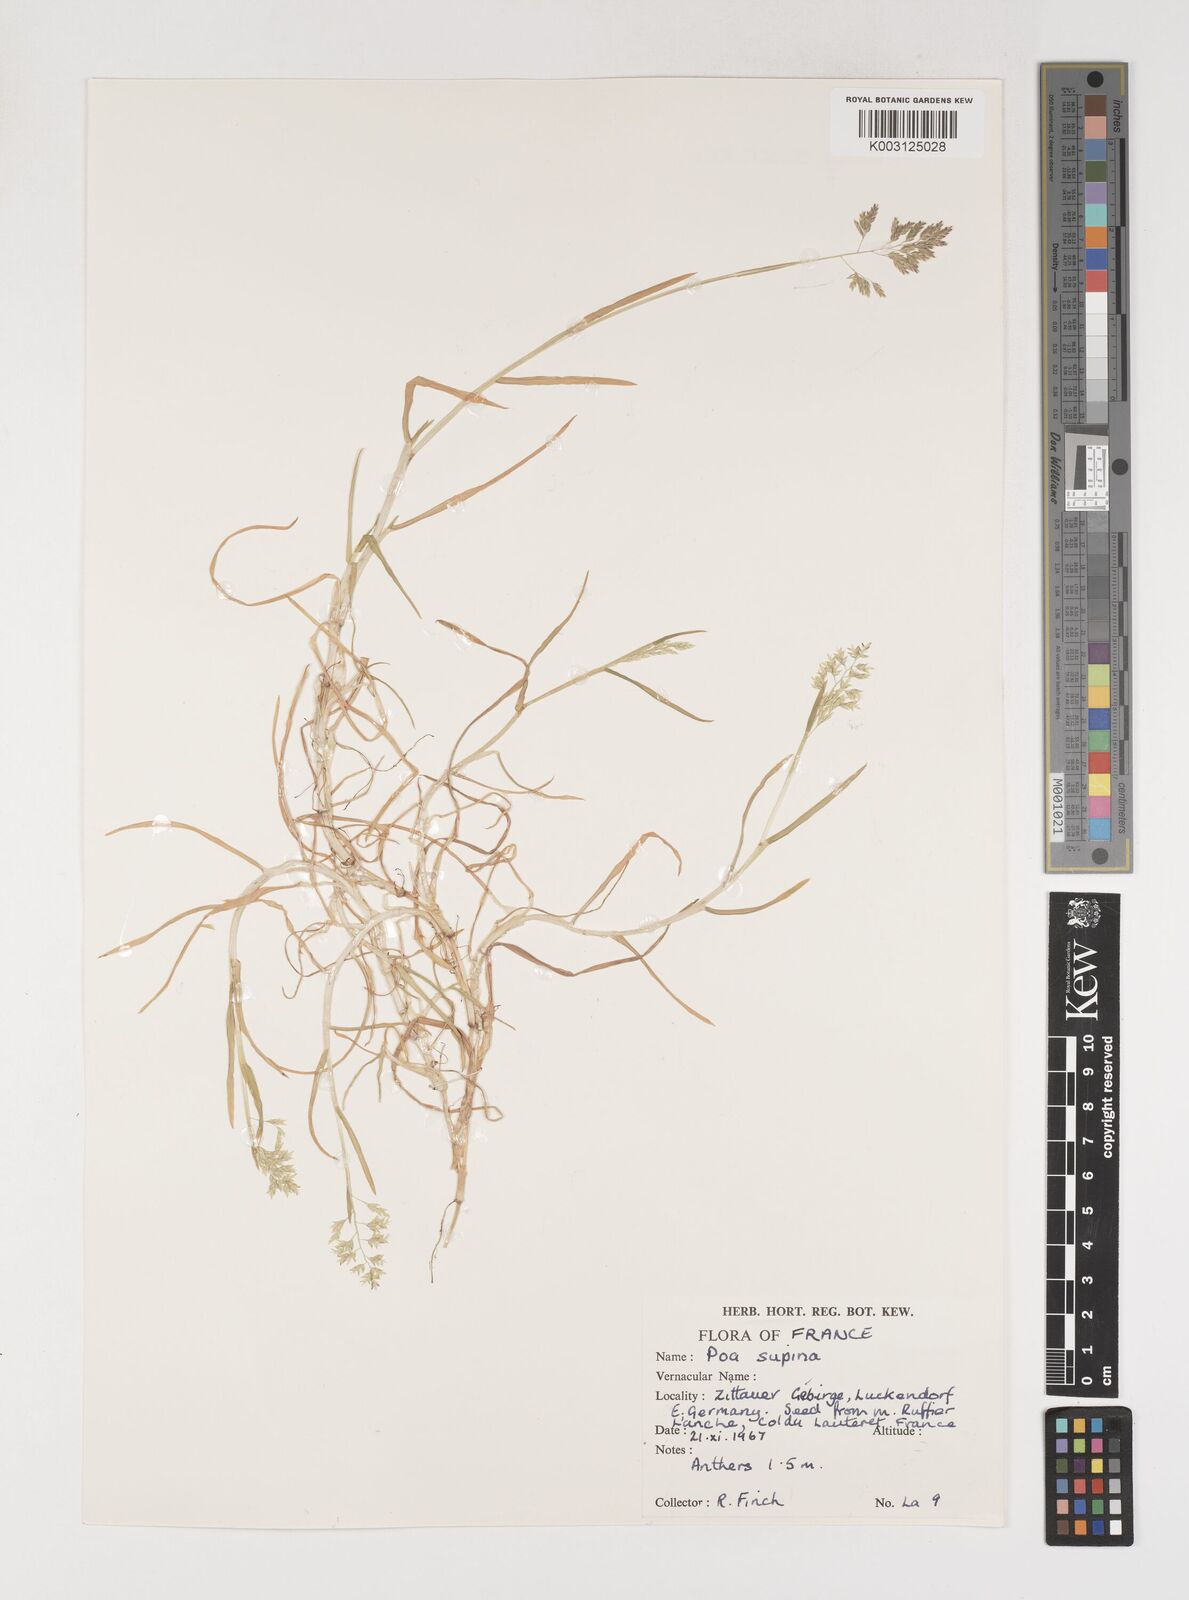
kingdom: Plantae
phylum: Tracheophyta
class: Liliopsida
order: Poales
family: Poaceae
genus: Poa
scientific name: Poa supina
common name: Supina bluegrass
